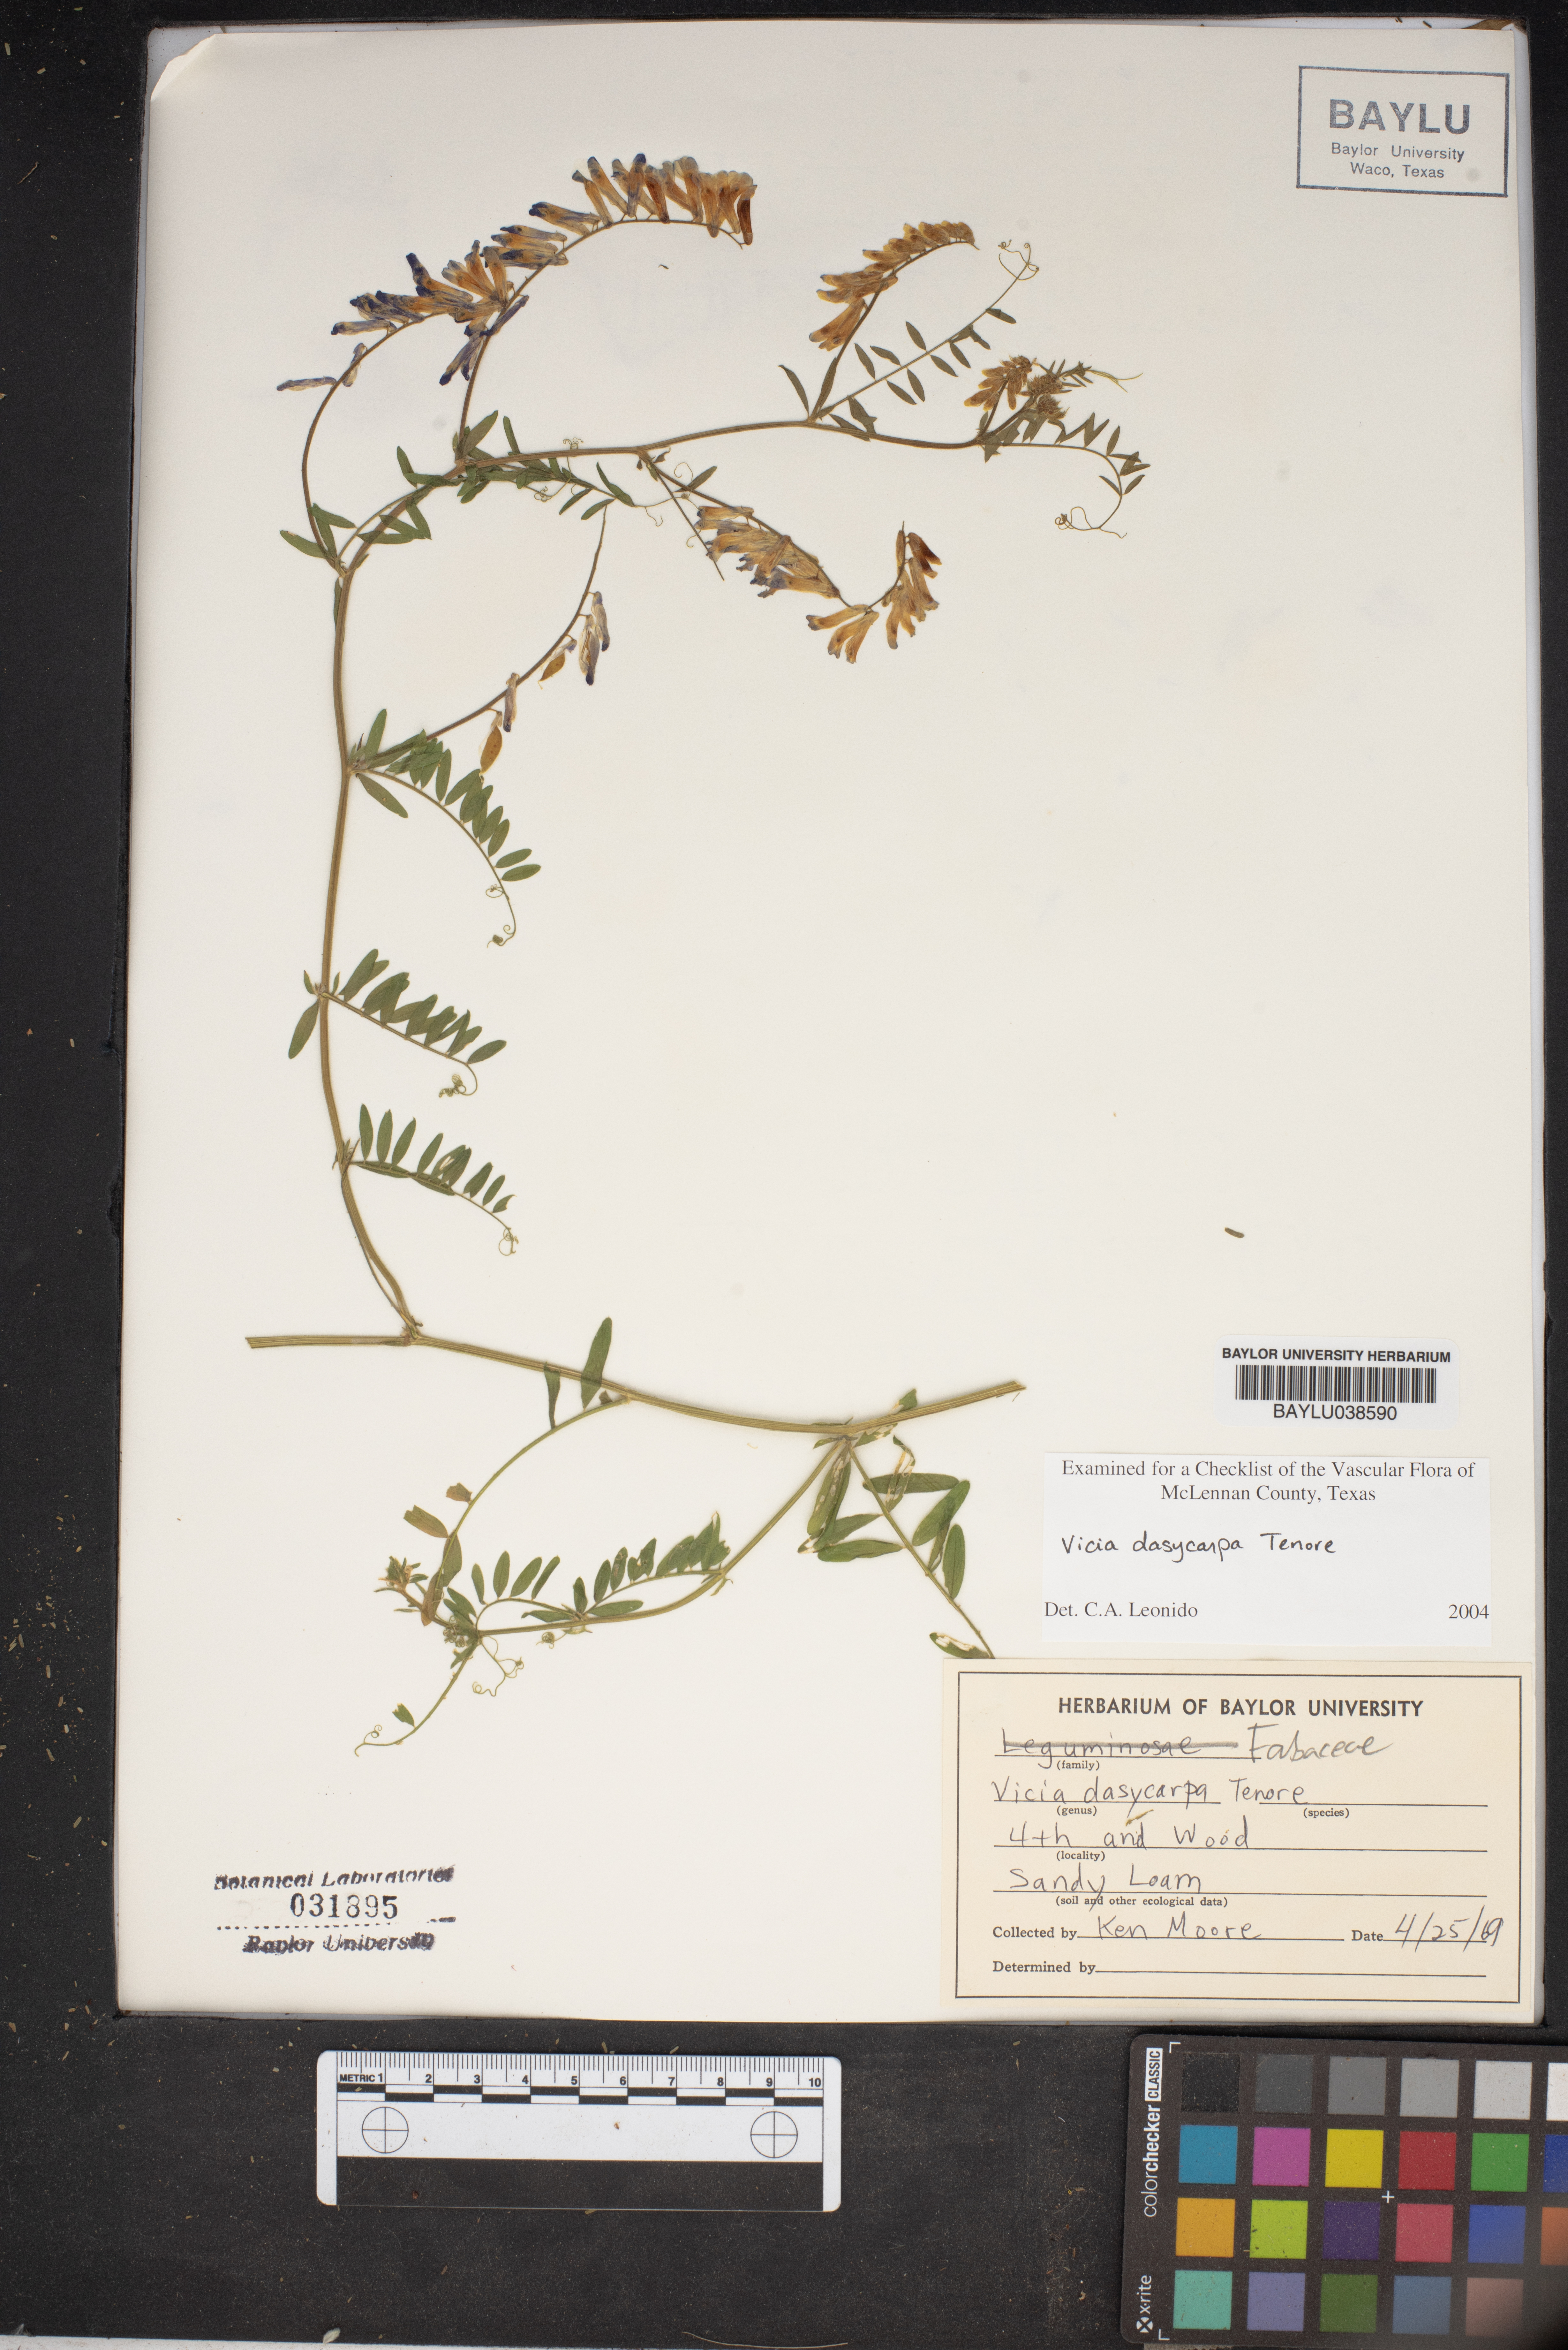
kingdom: Plantae
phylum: Tracheophyta
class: Magnoliopsida
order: Fabales
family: Fabaceae
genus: Vicia
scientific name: Vicia villosa
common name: Fodder vetch
